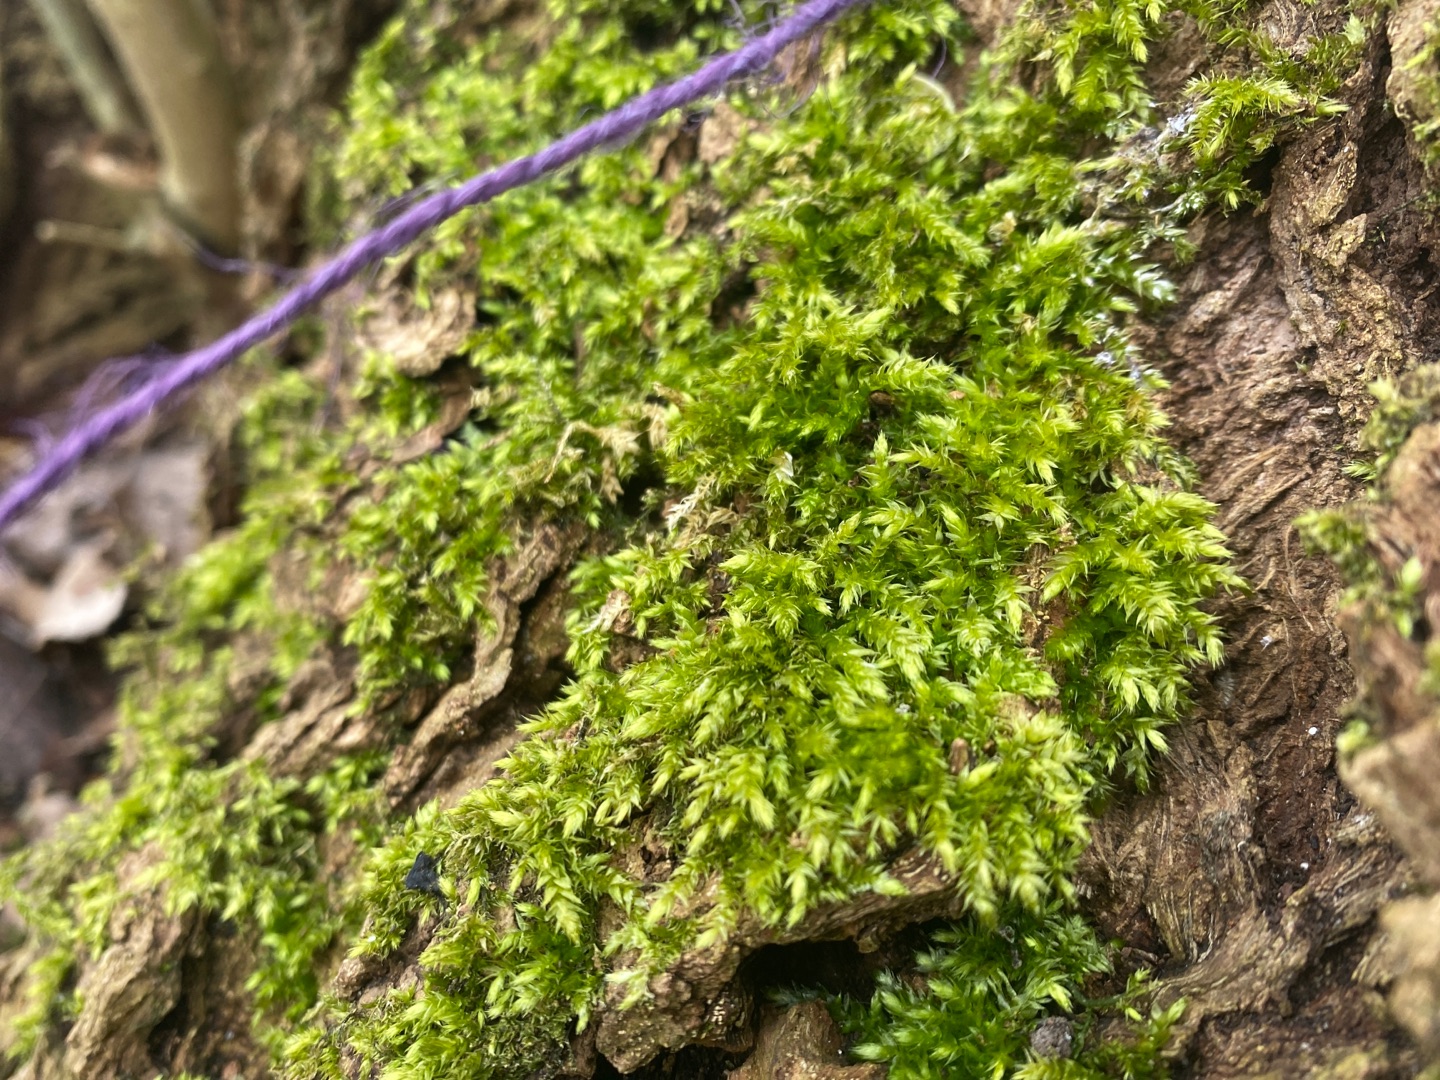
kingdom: Plantae
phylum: Bryophyta
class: Bryopsida
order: Hypnales
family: Brachytheciaceae
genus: Brachythecium
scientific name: Brachythecium rutabulum
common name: Almindelig kortkapsel
